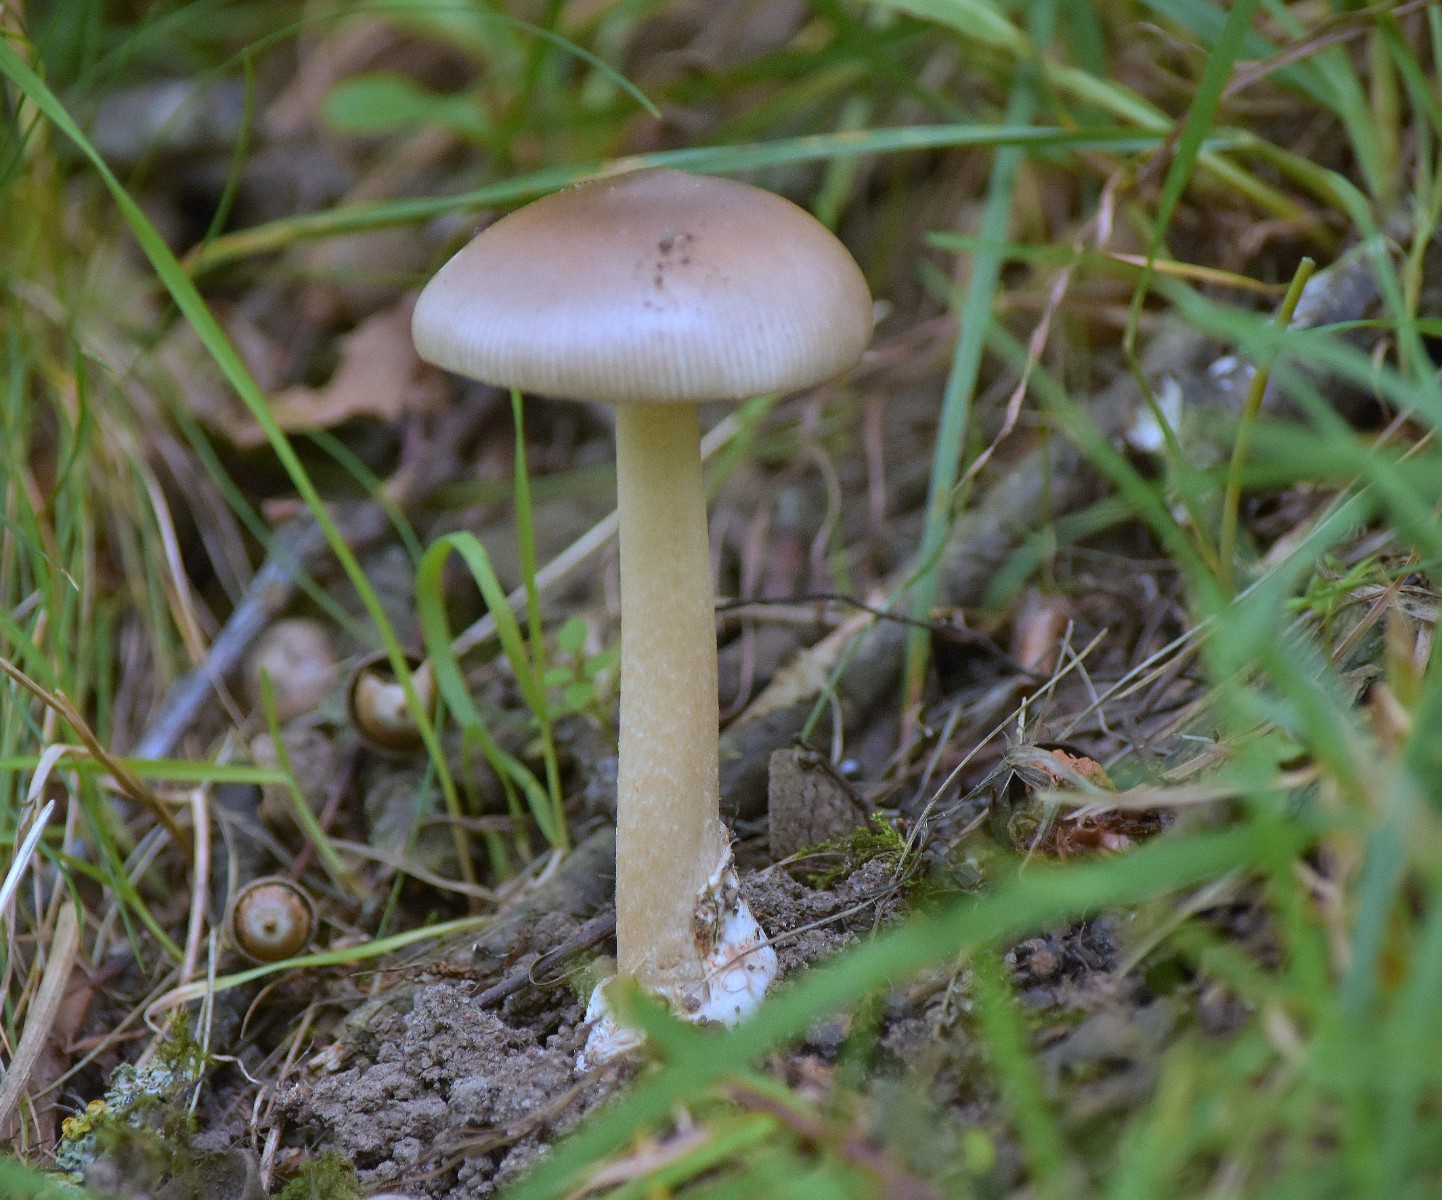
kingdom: Fungi
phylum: Basidiomycota
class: Agaricomycetes
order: Agaricales
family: Amanitaceae
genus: Amanita
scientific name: Amanita
